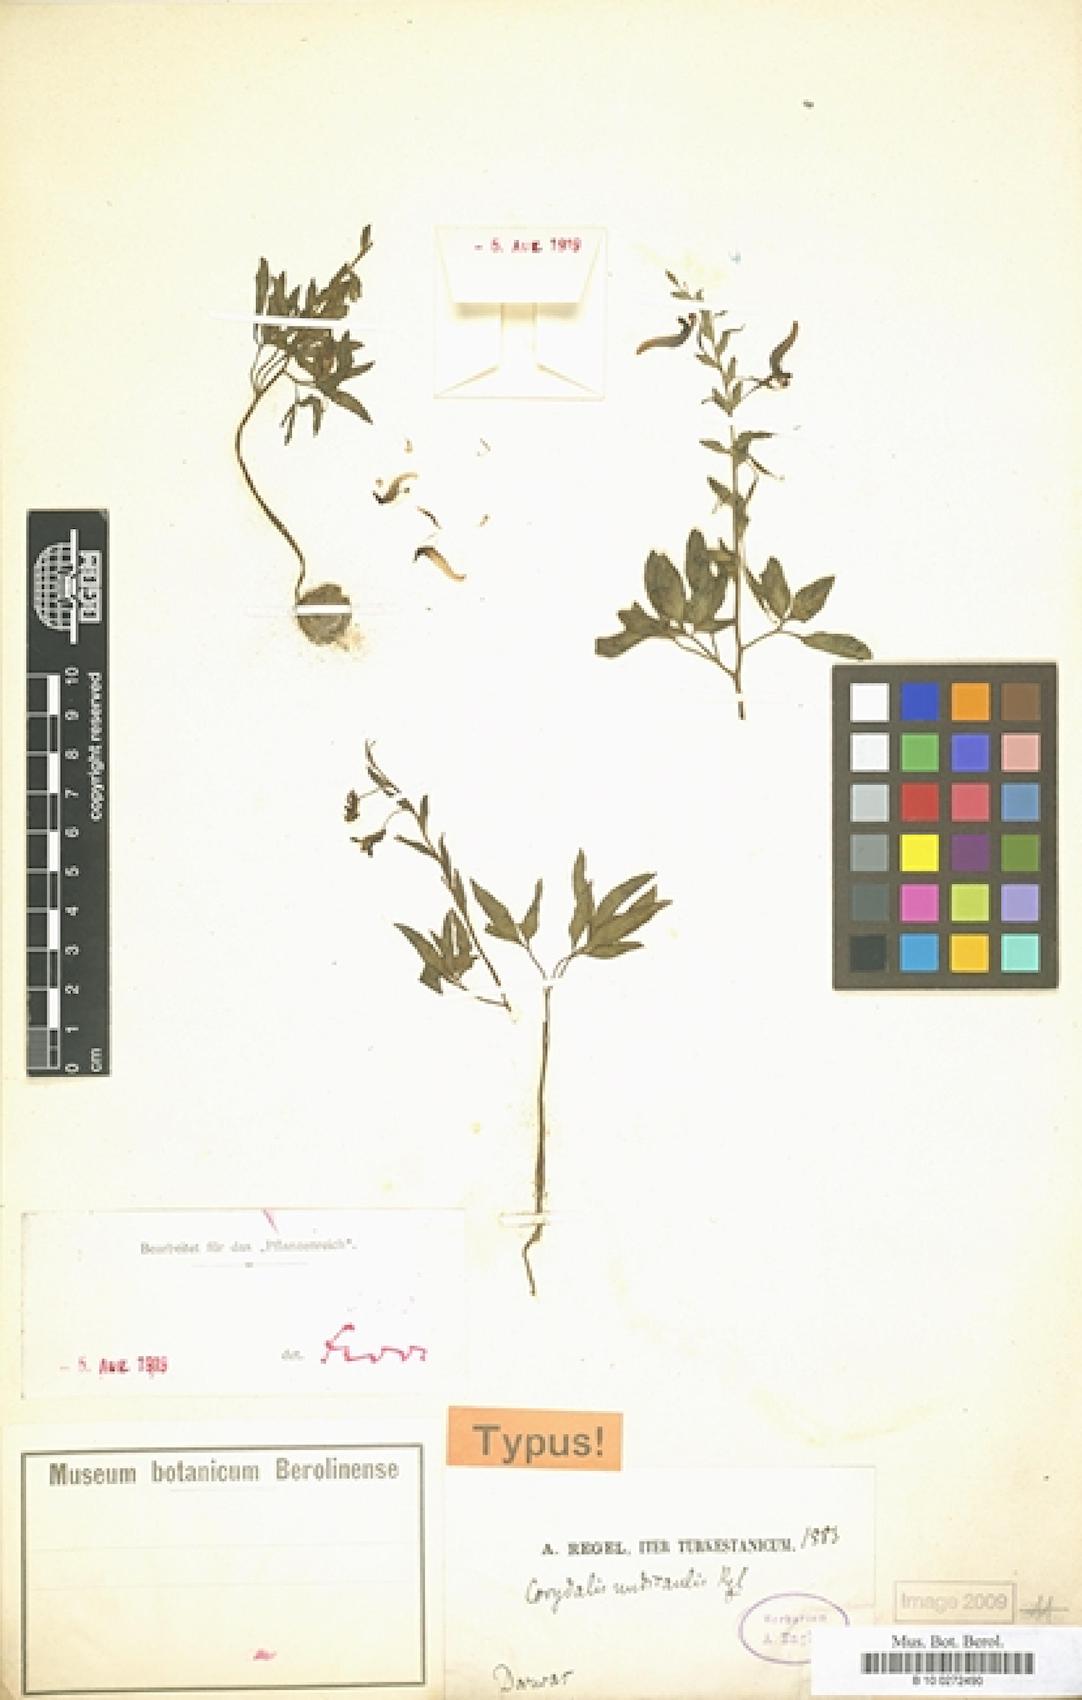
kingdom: Plantae
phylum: Tracheophyta
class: Magnoliopsida
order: Ranunculales
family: Papaveraceae
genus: Corydalis
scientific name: Corydalis nudicaulis
